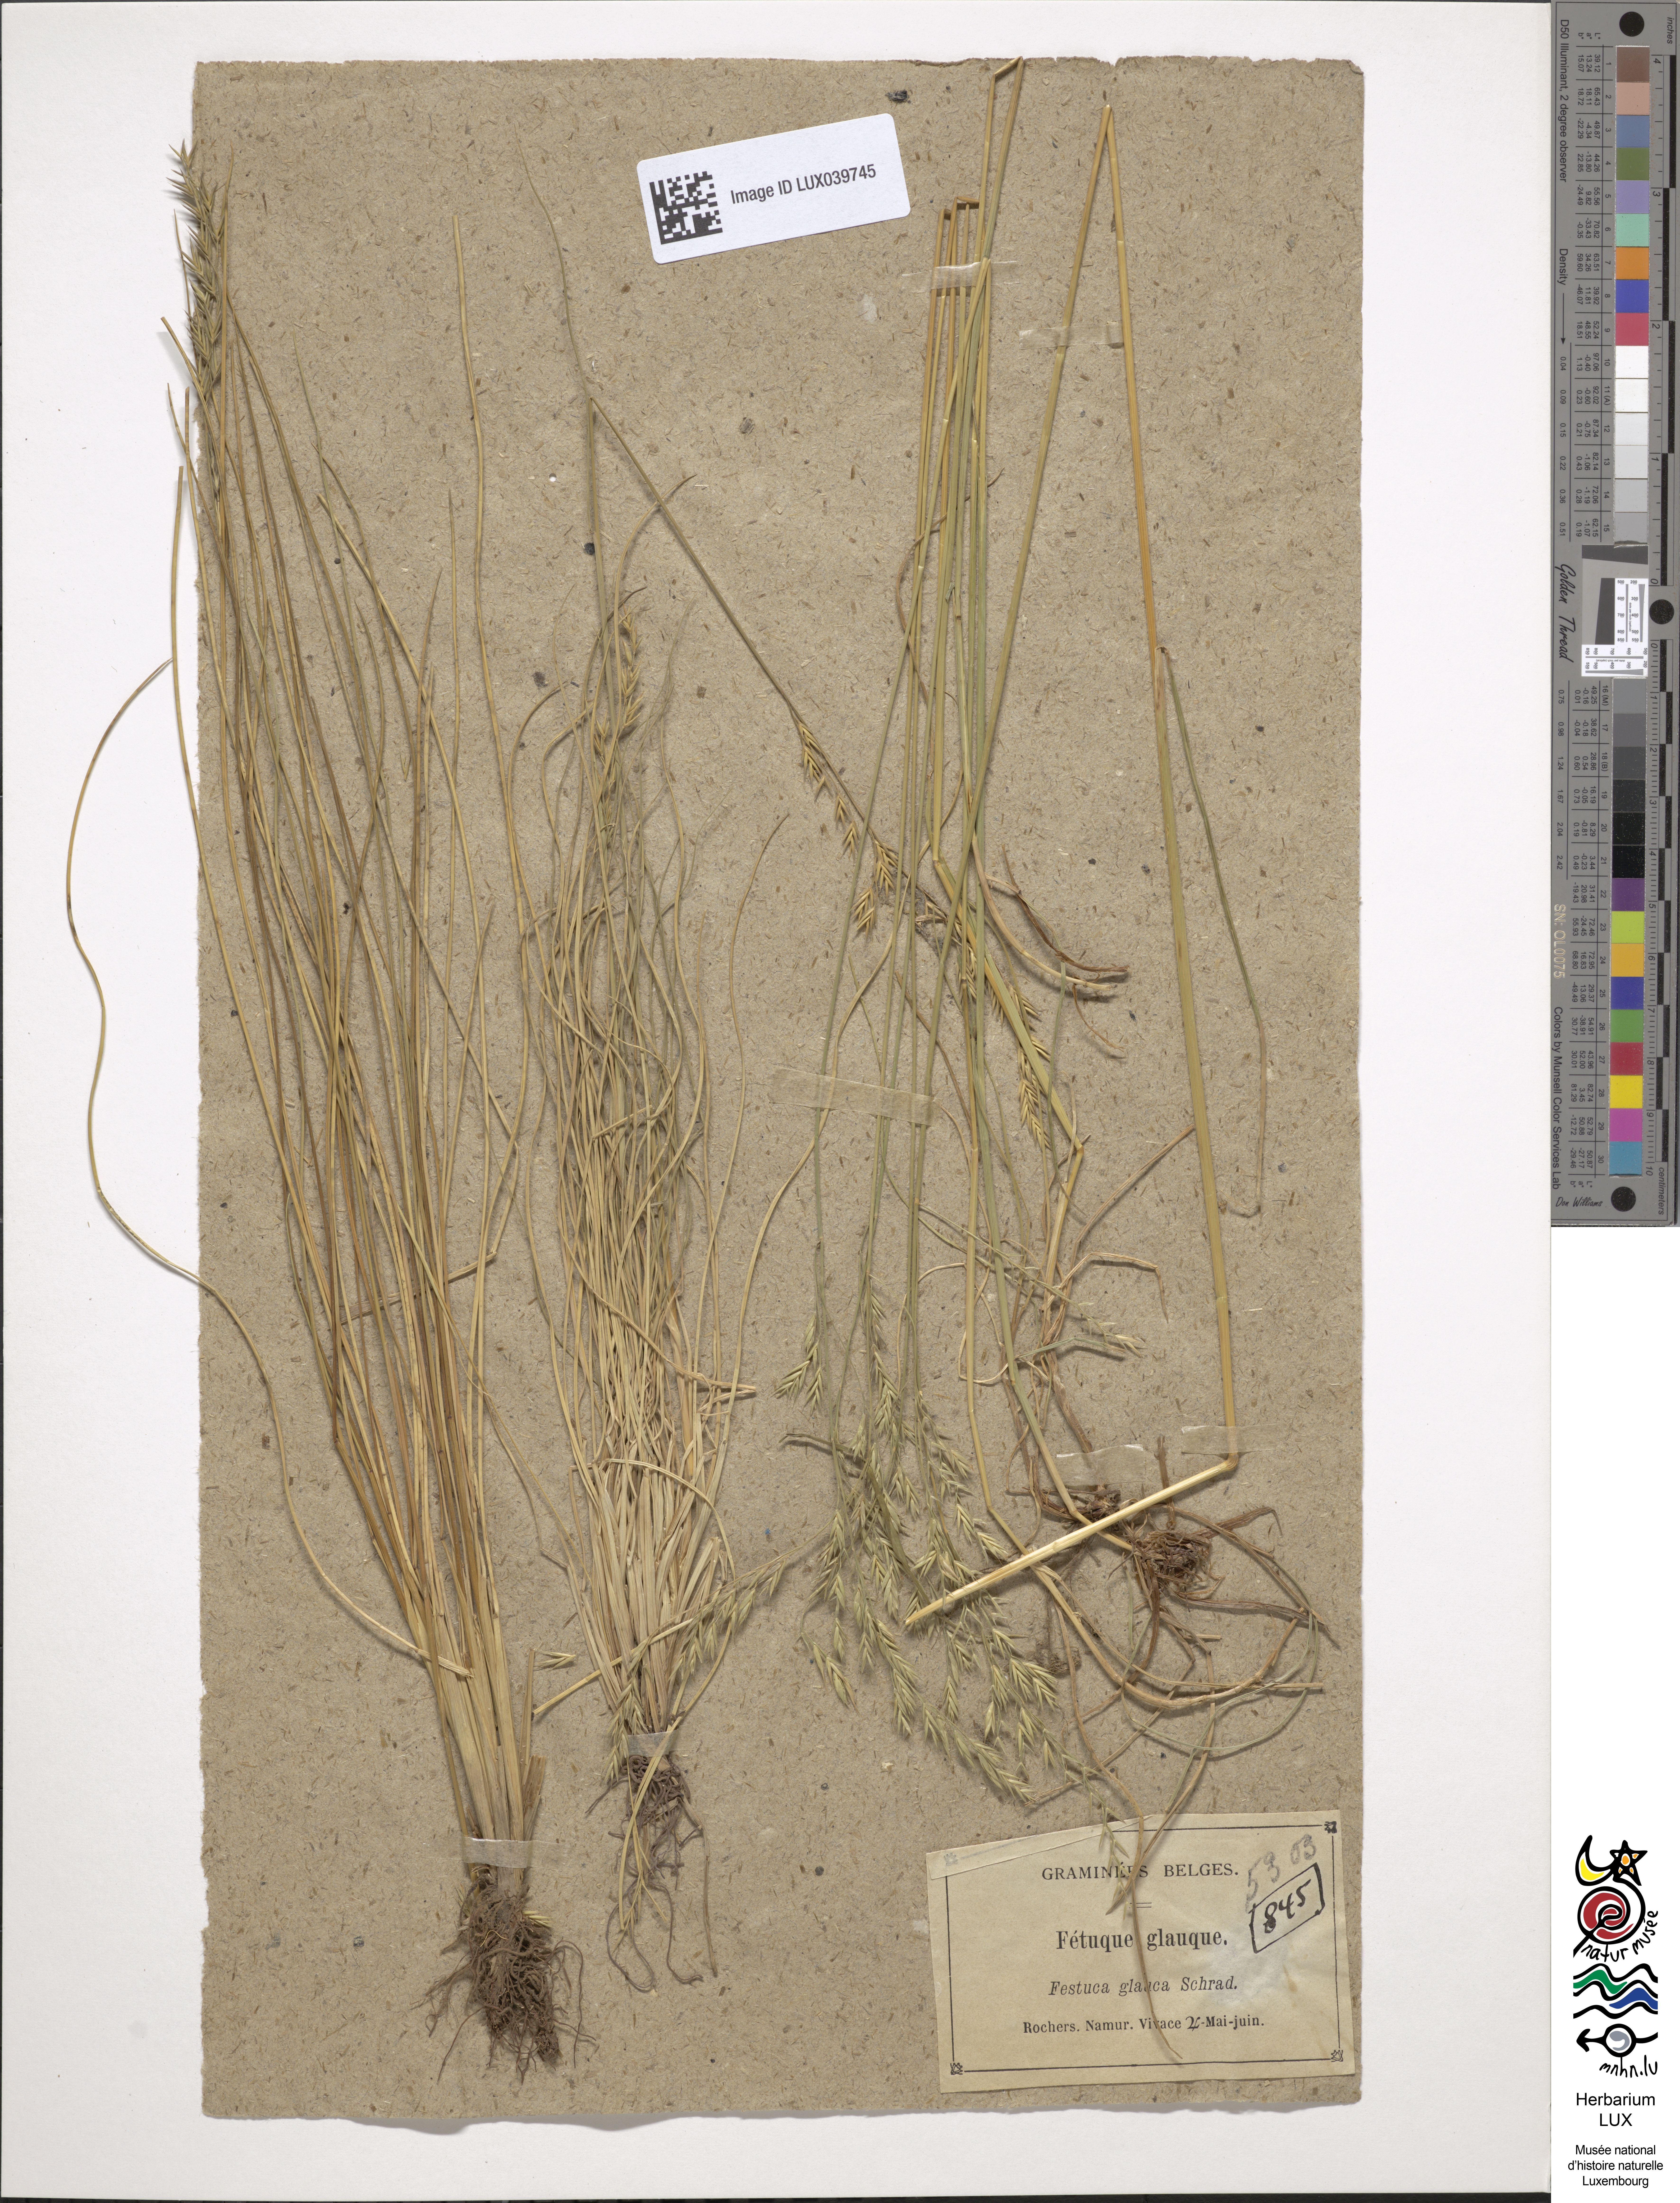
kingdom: Plantae
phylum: Tracheophyta
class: Liliopsida
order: Poales
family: Poaceae
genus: Festuca
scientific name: Festuca pallens
